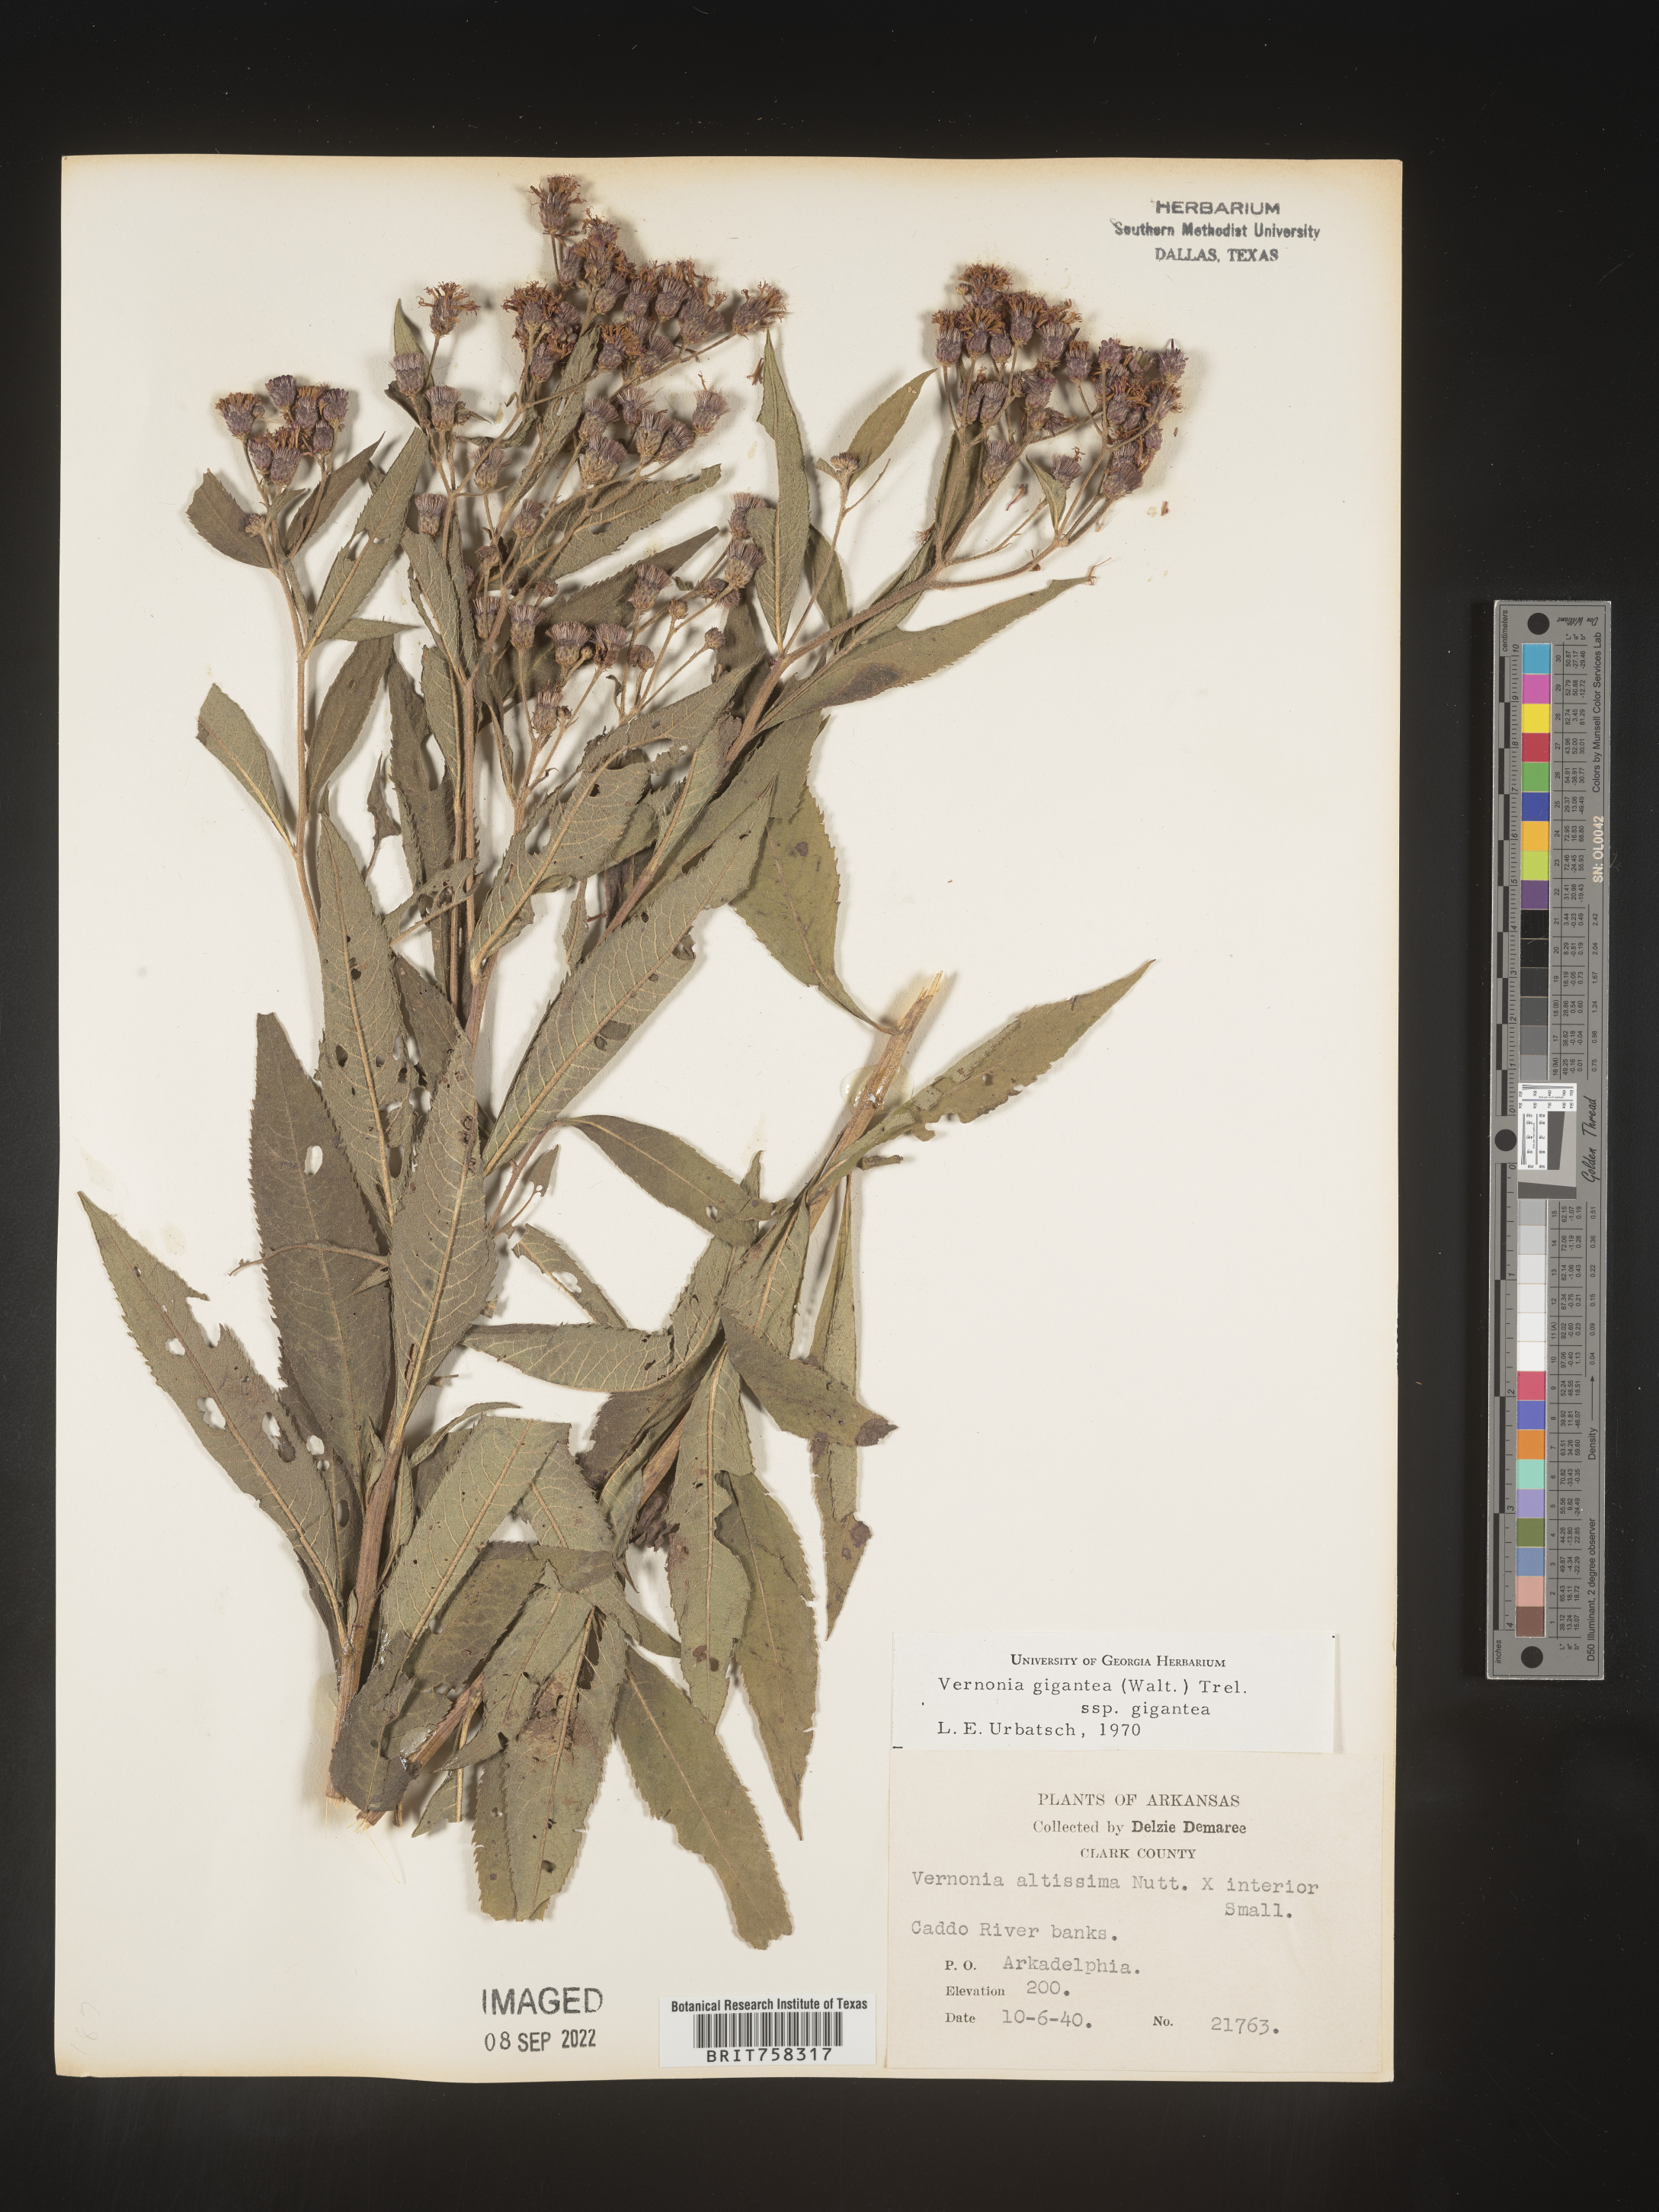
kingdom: Plantae
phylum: Tracheophyta
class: Magnoliopsida
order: Asterales
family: Asteraceae
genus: Vernonia
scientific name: Vernonia gigantea
